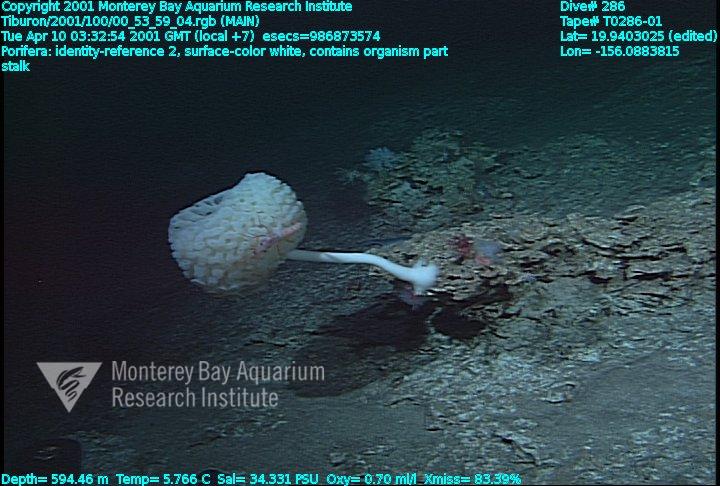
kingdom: Animalia
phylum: Porifera
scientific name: Porifera
